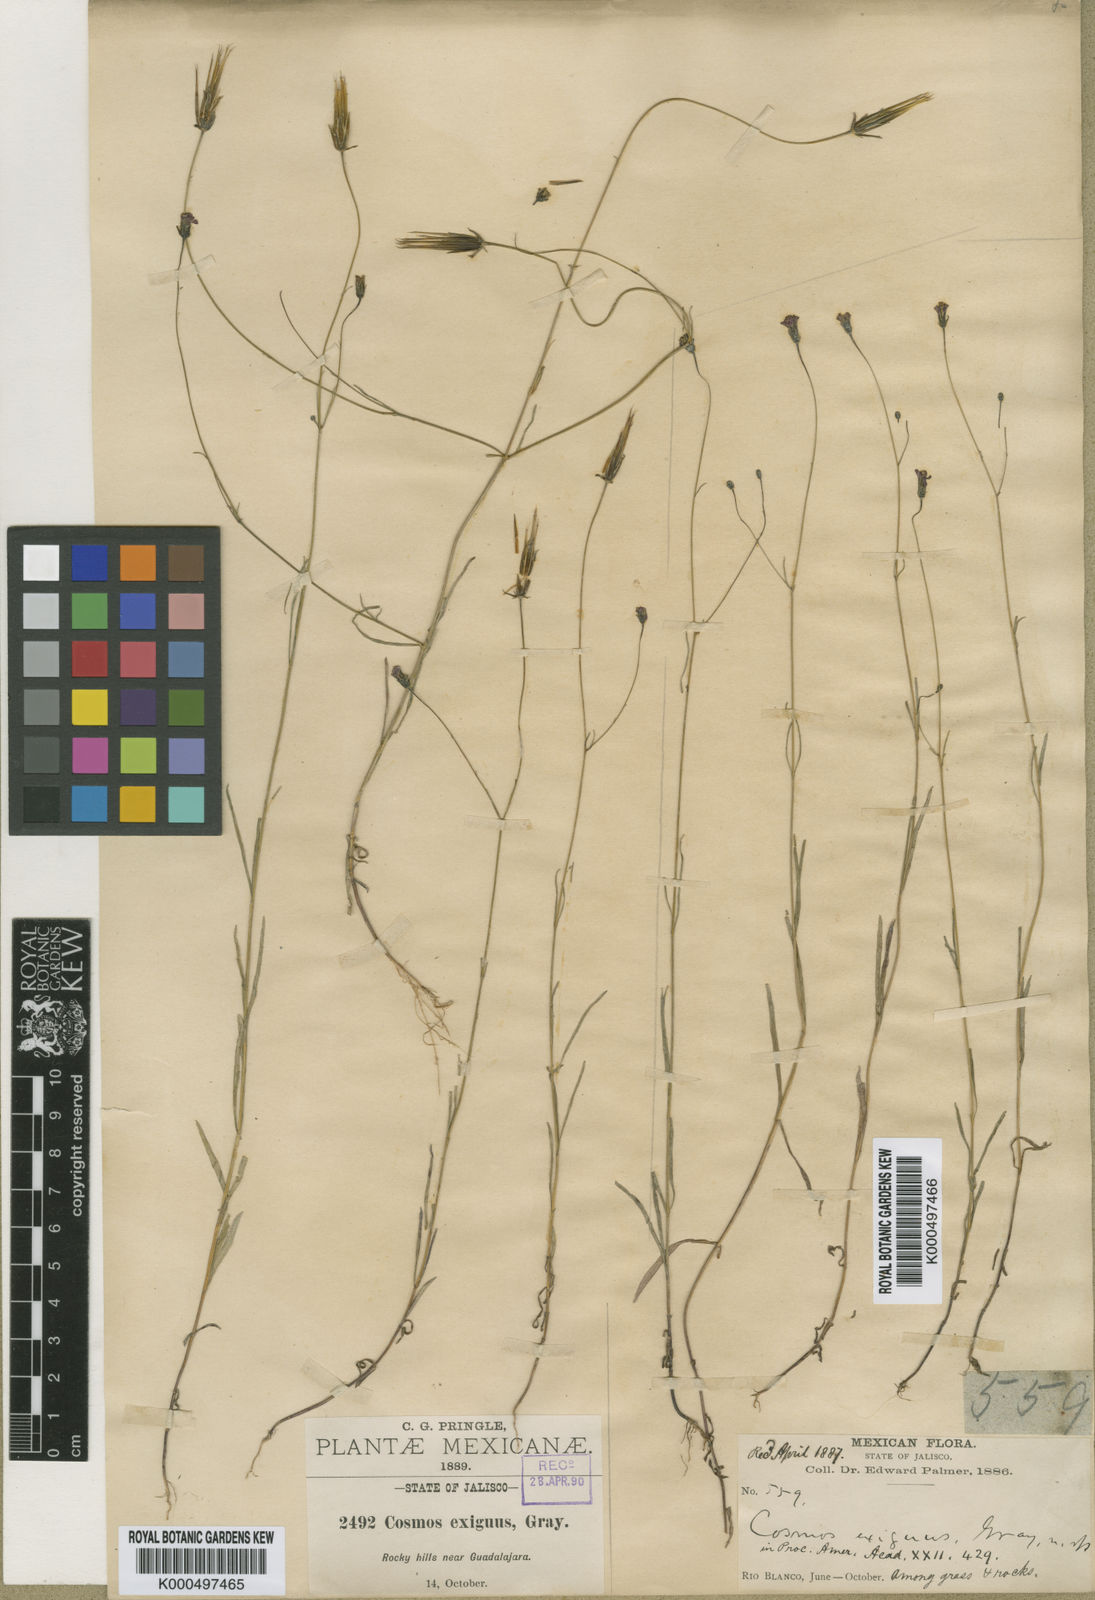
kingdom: Plantae
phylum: Tracheophyta
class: Magnoliopsida
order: Asterales
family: Asteraceae
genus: Bidens
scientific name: Bidens rostrata
